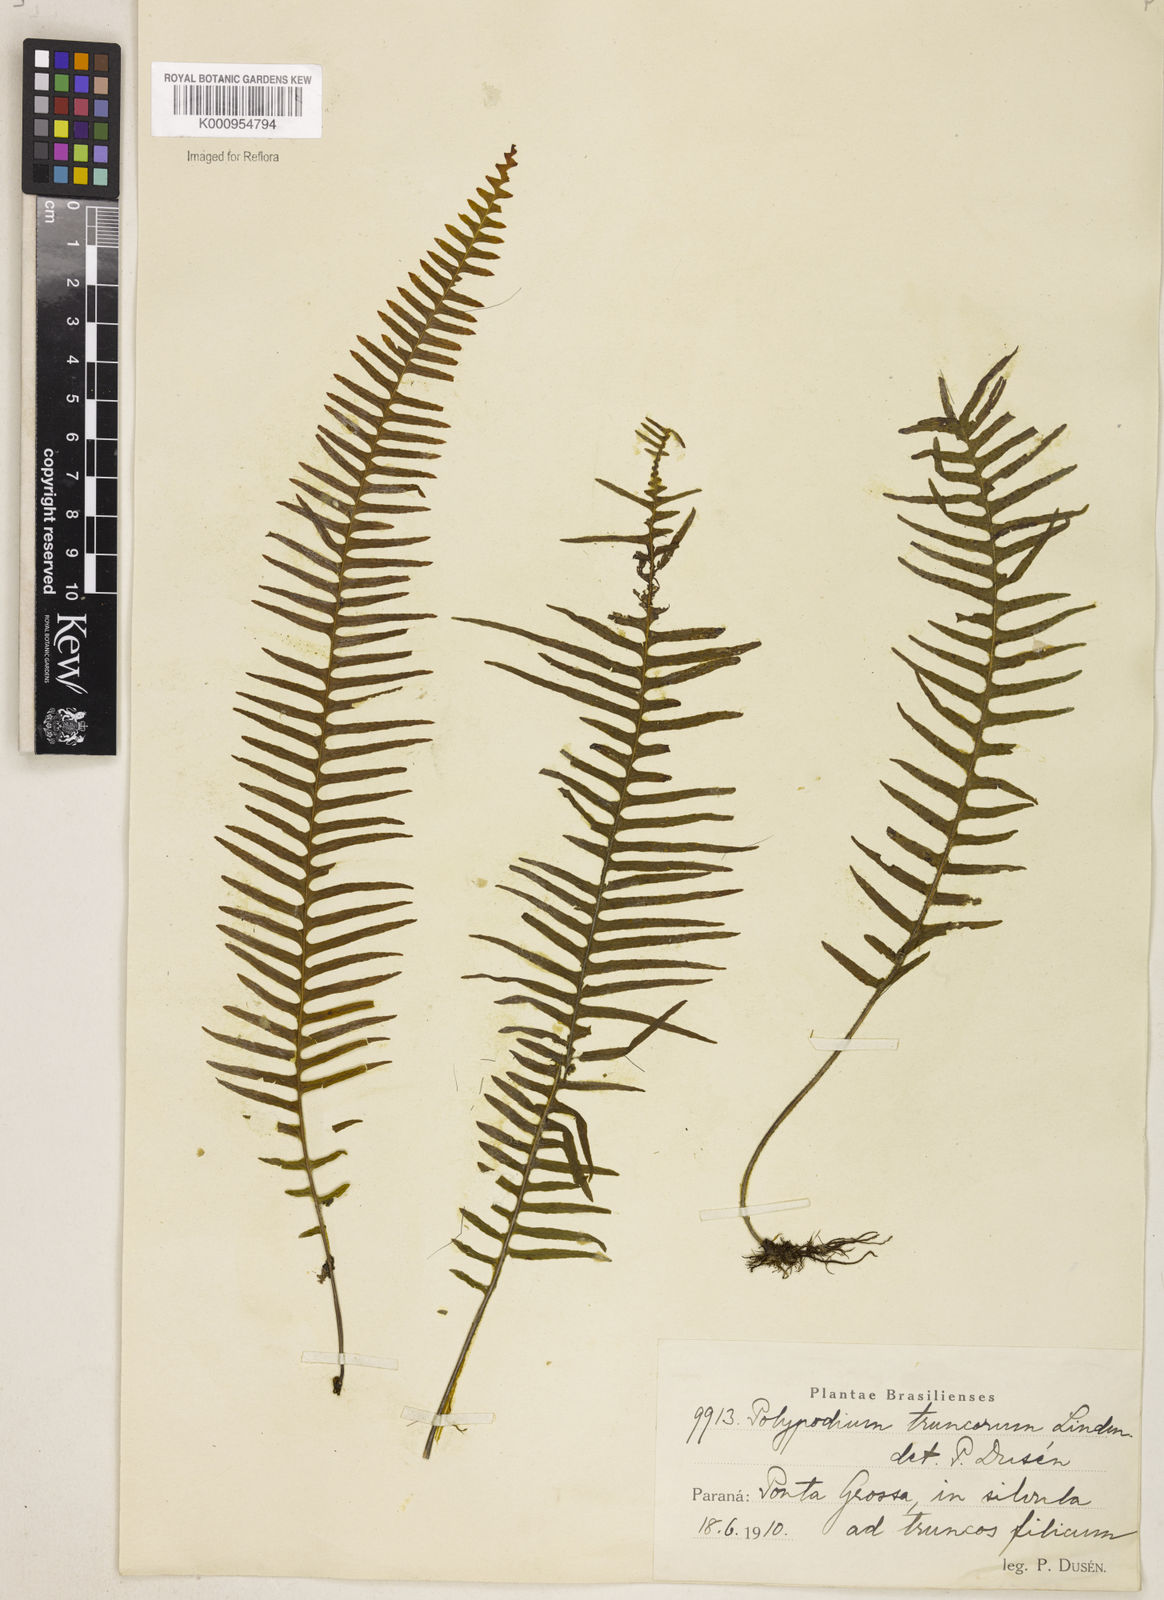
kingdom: Plantae
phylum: Tracheophyta
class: Polypodiopsida
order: Polypodiales
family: Polypodiaceae
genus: Pecluma
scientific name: Pecluma
